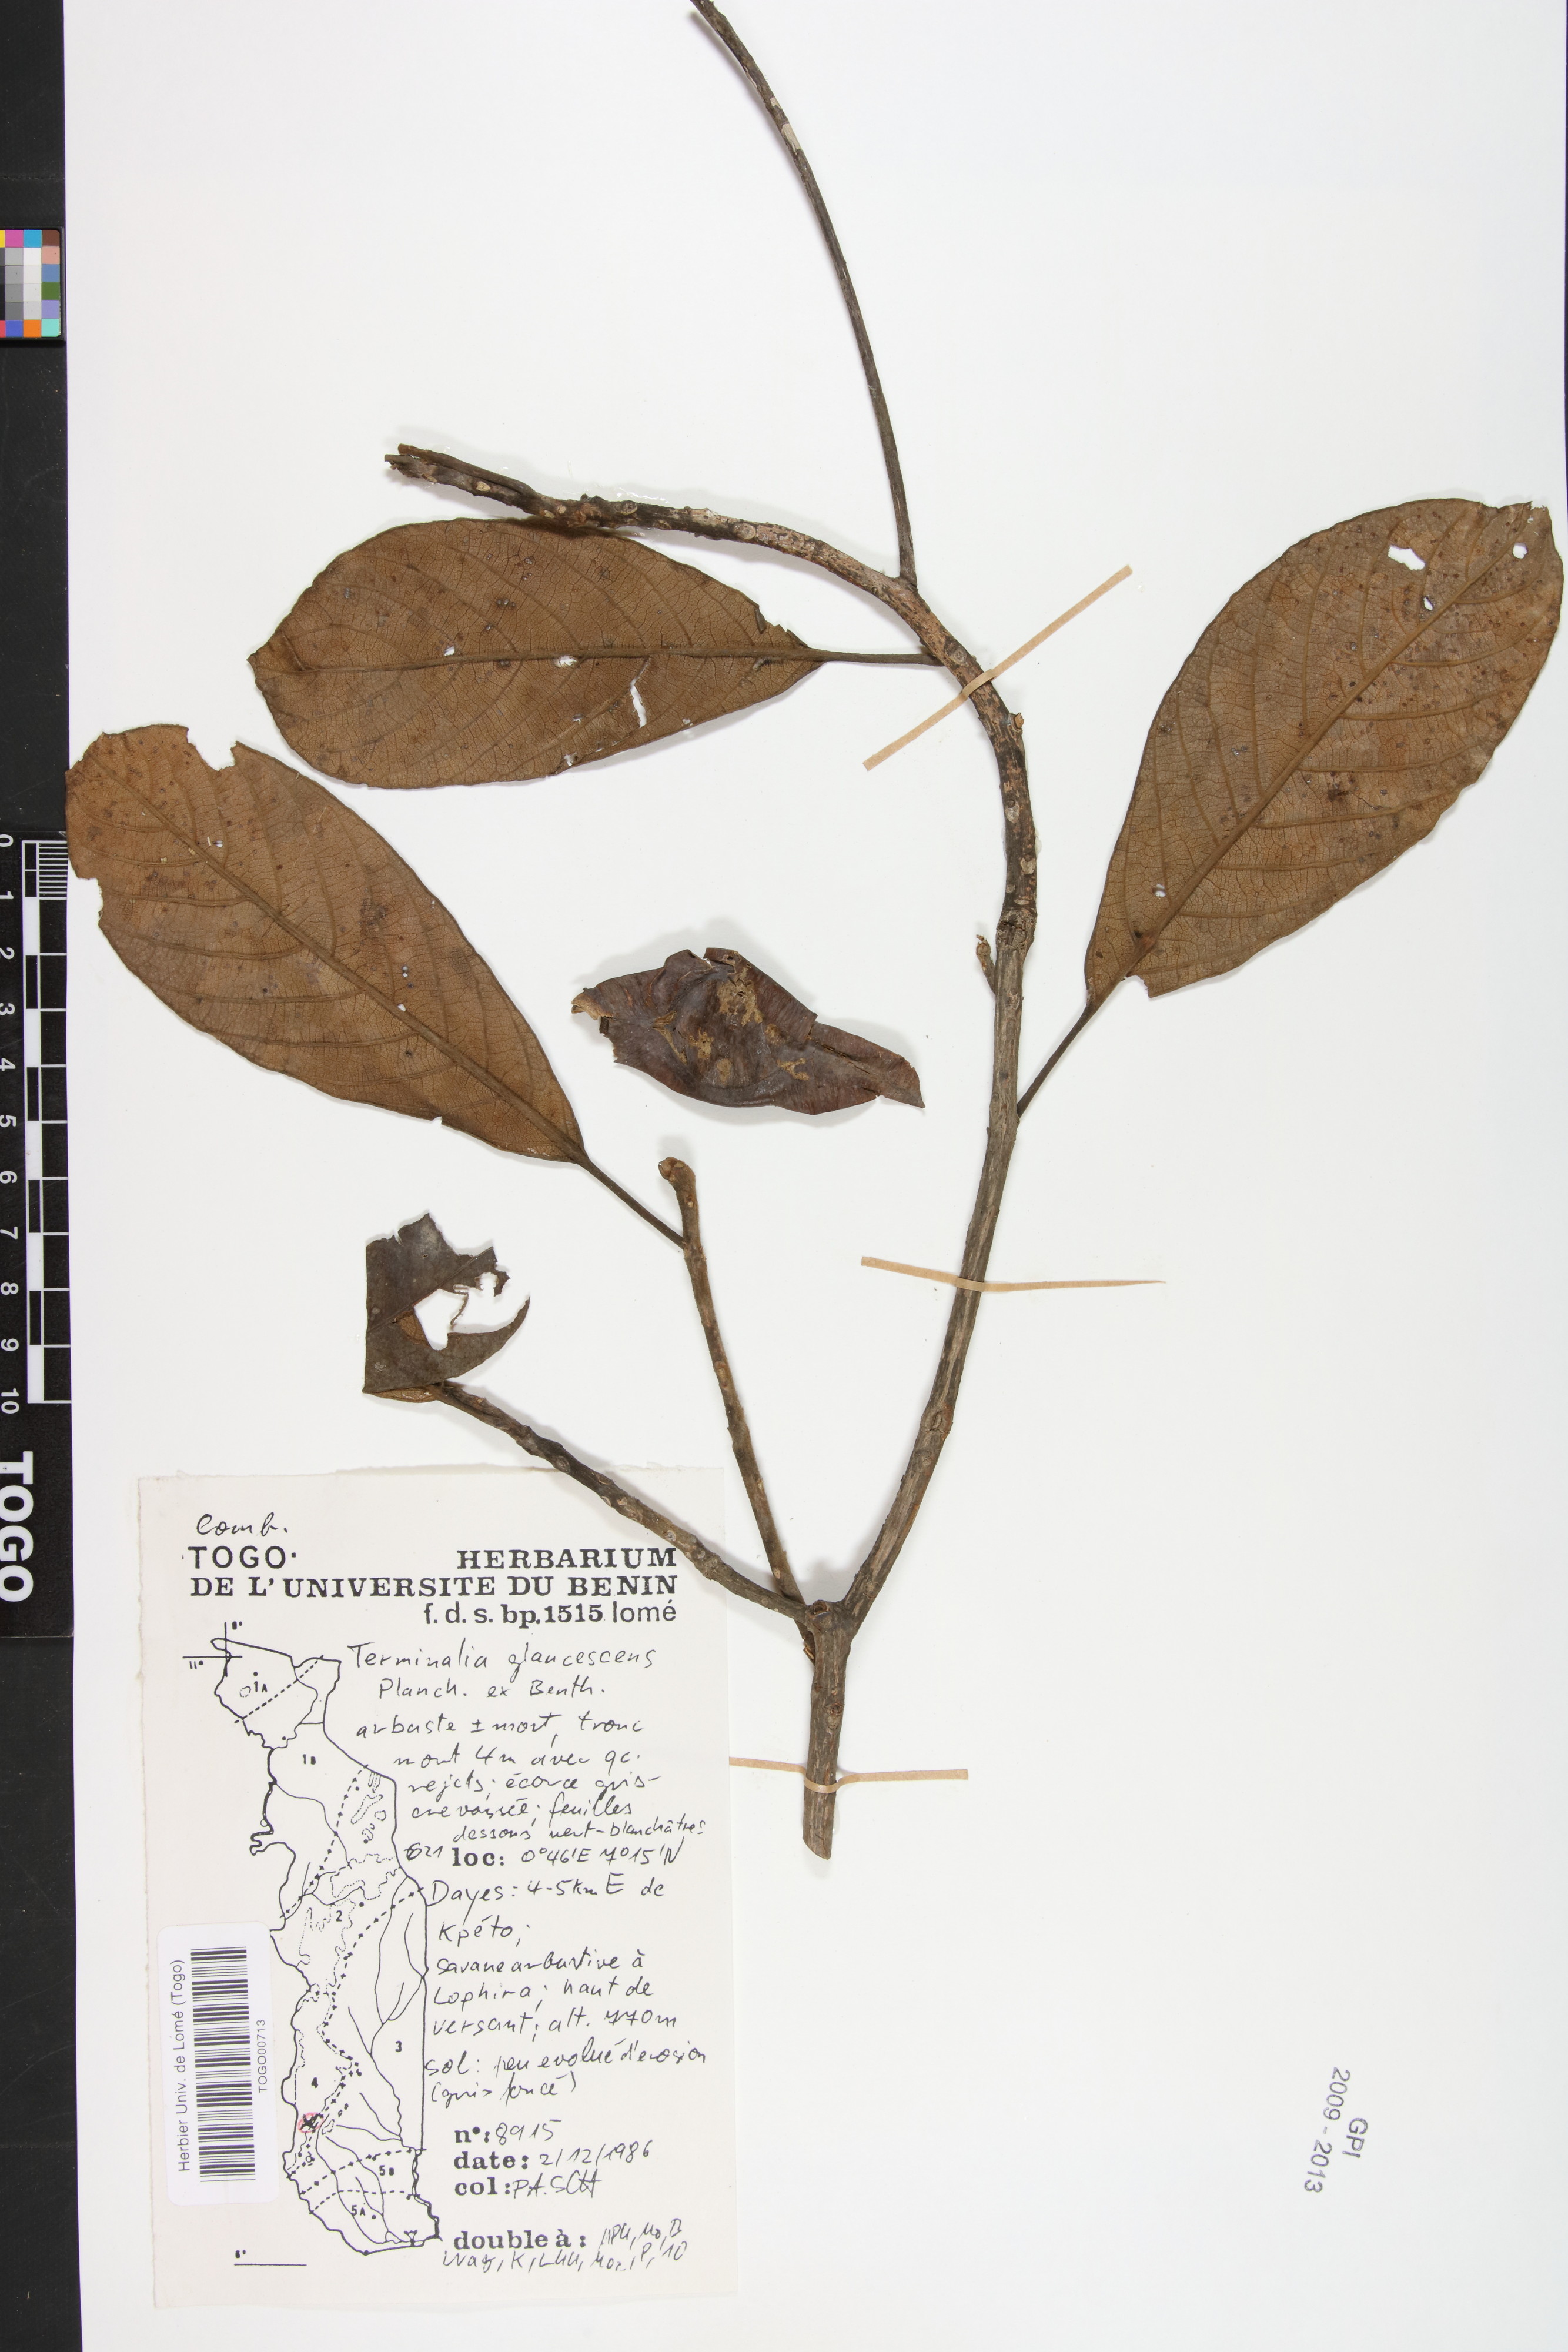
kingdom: Plantae
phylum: Tracheophyta
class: Magnoliopsida
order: Myrtales
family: Combretaceae
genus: Terminalia
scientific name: Terminalia schimperiana
